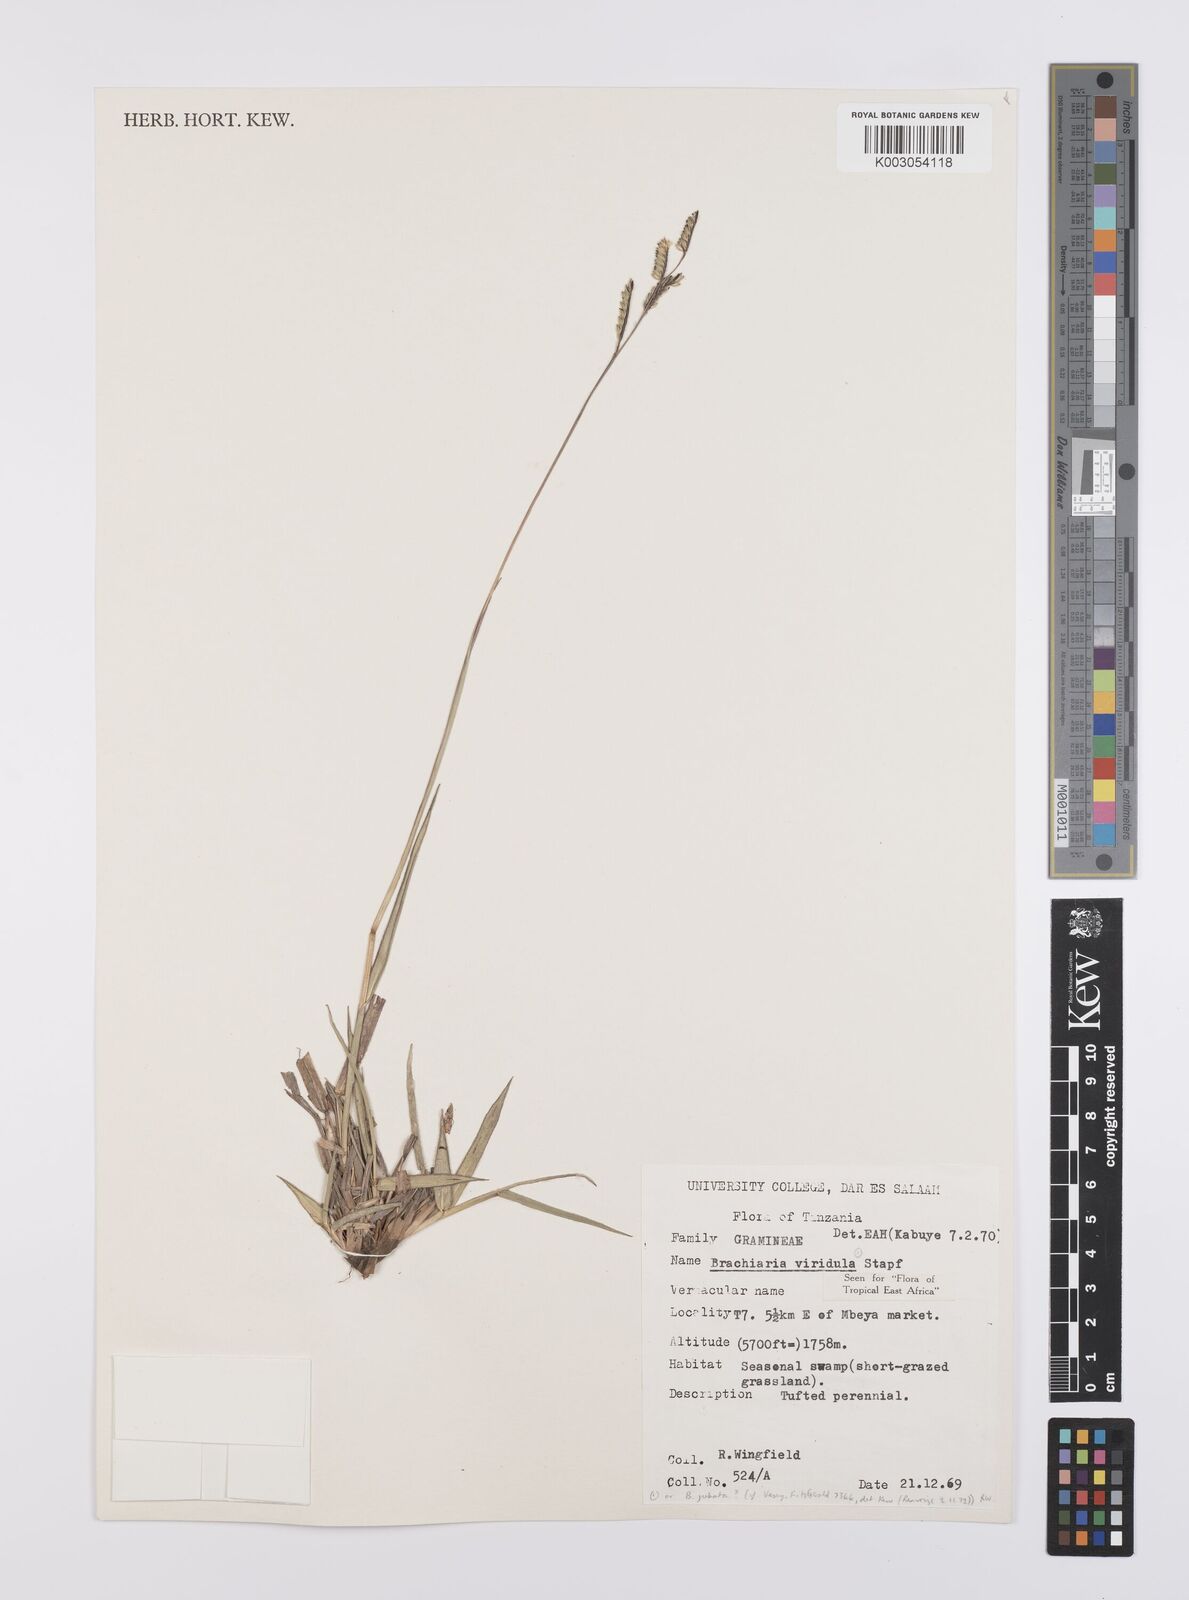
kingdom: Plantae
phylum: Tracheophyta
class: Liliopsida
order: Poales
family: Poaceae
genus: Urochloa
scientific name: Urochloa bovonei
